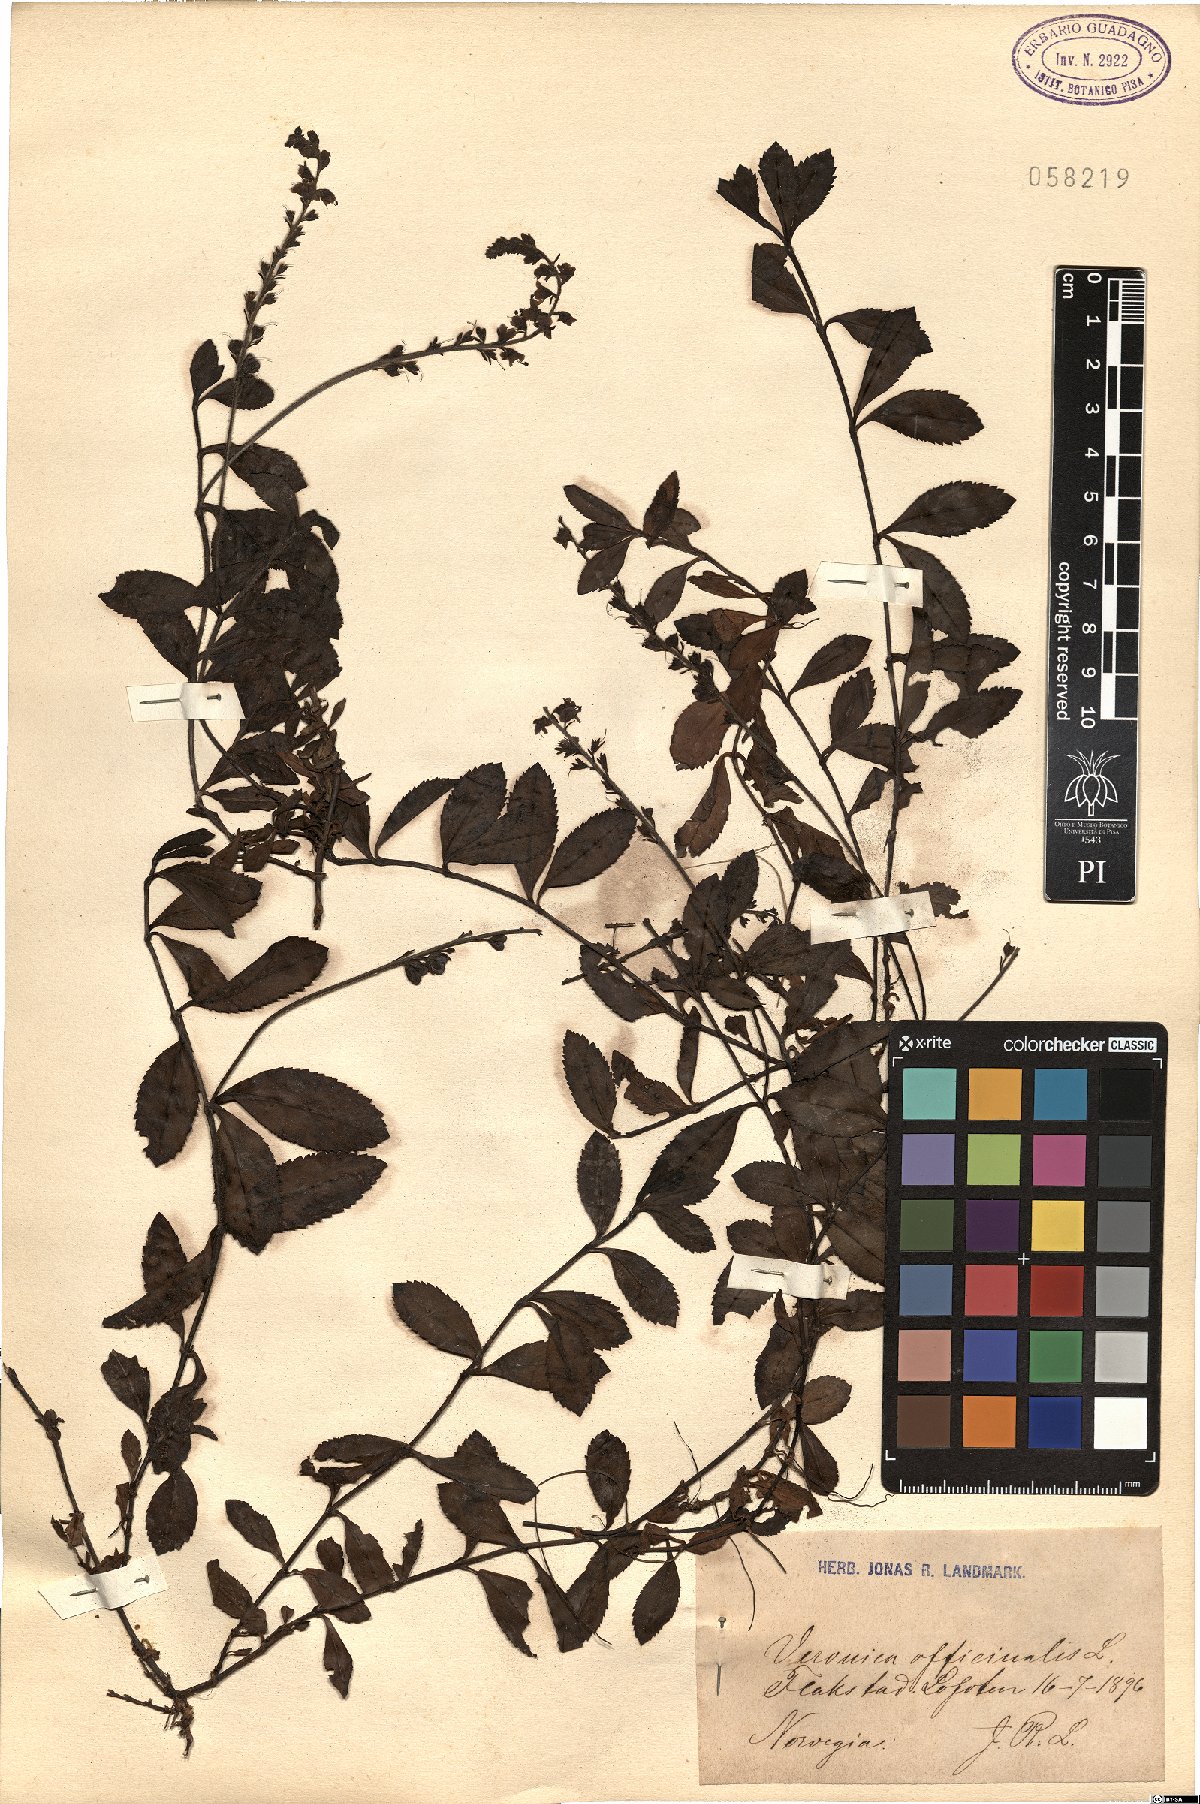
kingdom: Plantae
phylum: Tracheophyta
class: Magnoliopsida
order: Lamiales
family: Plantaginaceae
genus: Veronica
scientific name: Veronica officinalis
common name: Common speedwell
